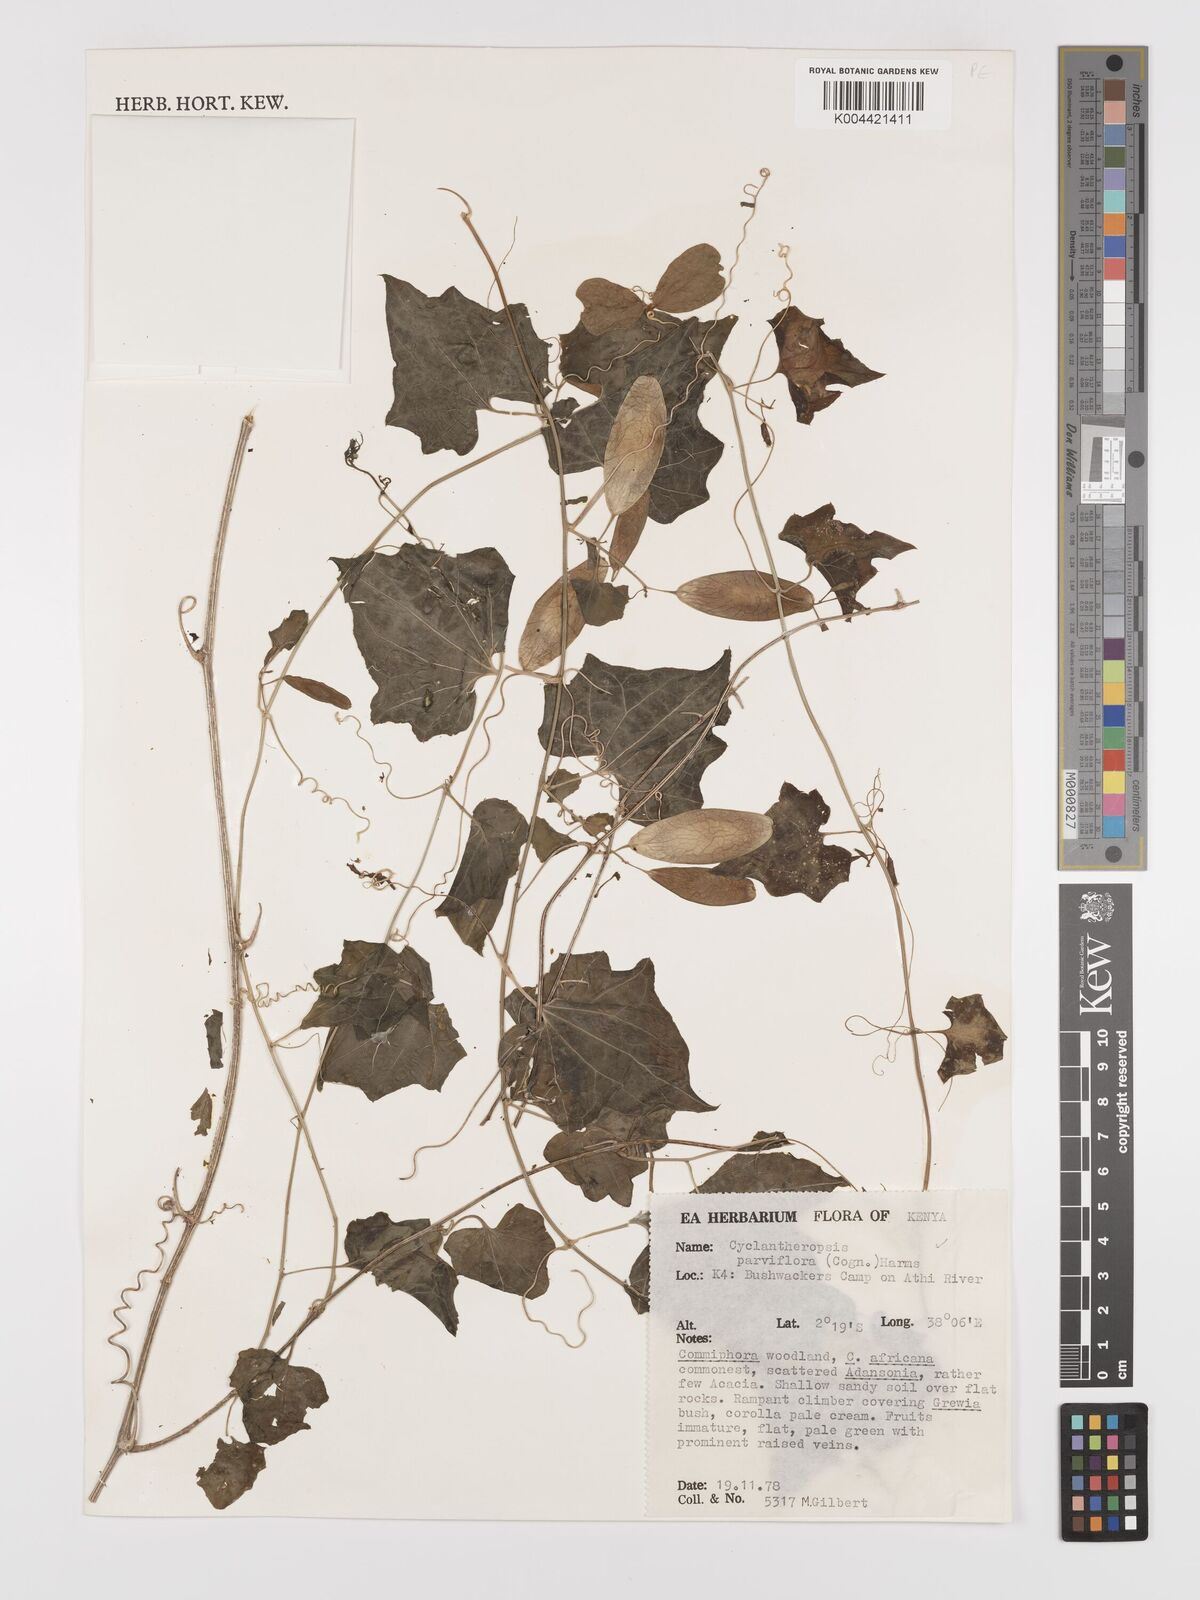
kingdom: Plantae
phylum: Tracheophyta
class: Magnoliopsida
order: Cucurbitales
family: Cucurbitaceae
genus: Cyclantheropsis
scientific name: Cyclantheropsis parviflora
